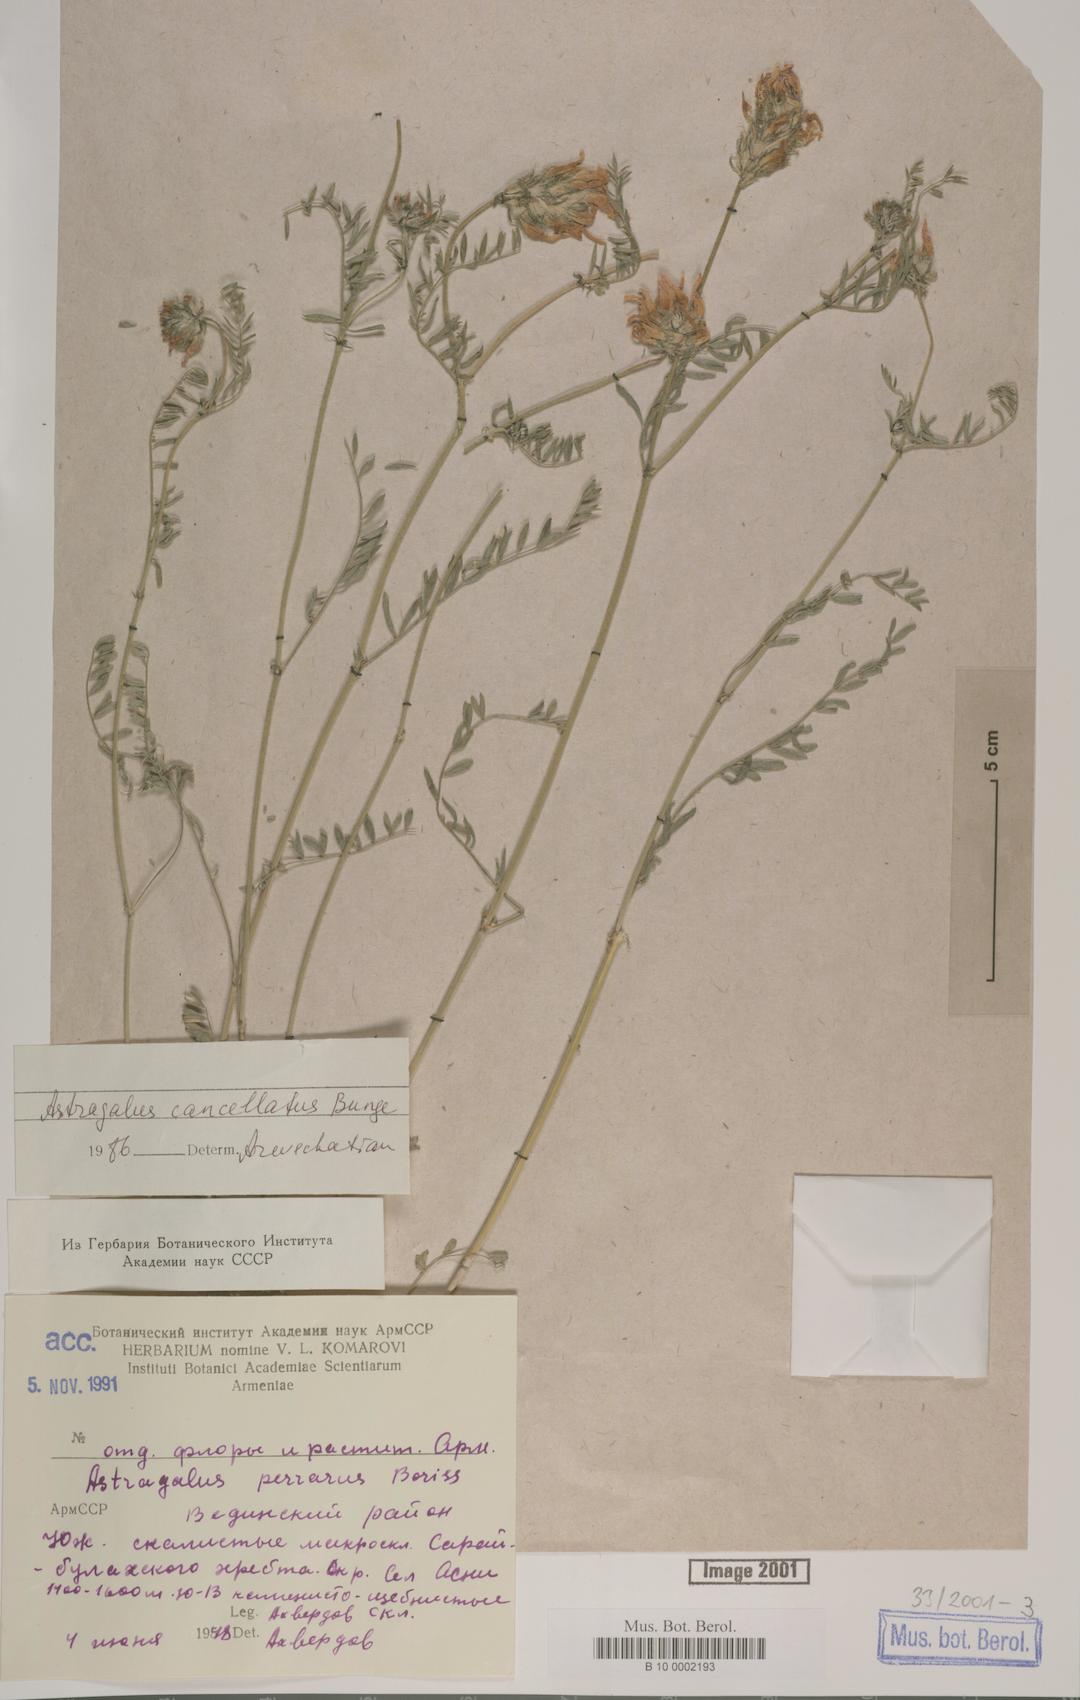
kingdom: Plantae
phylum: Tracheophyta
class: Magnoliopsida
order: Fabales
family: Fabaceae
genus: Astragalus
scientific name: Astragalus cancellatus
